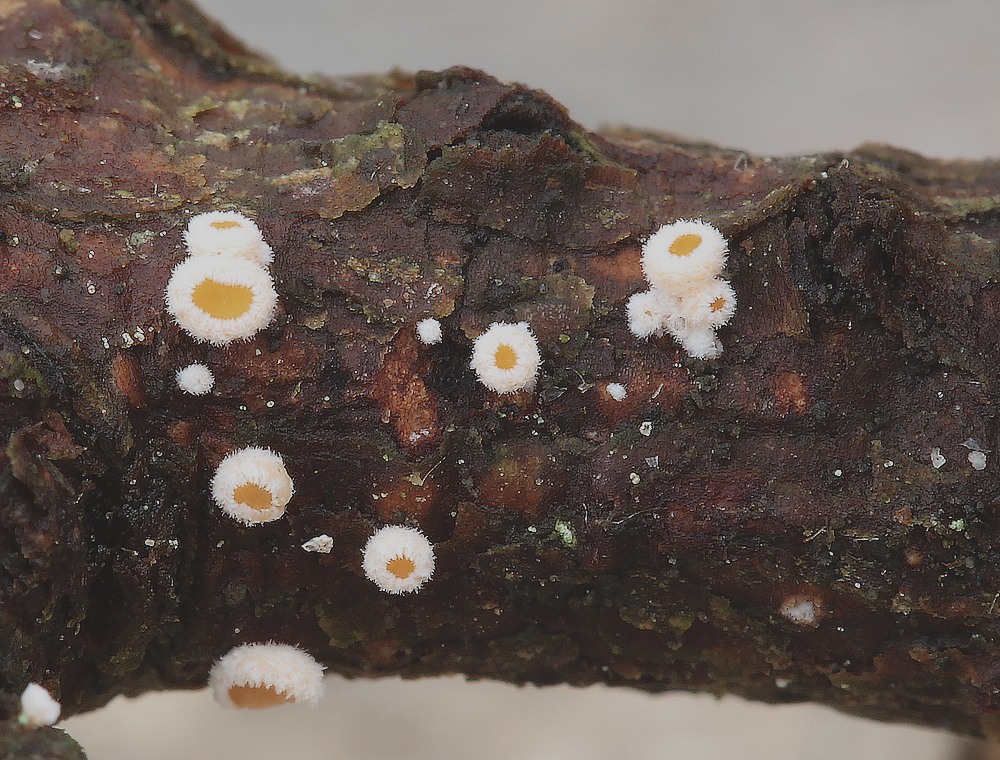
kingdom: Fungi
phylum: Ascomycota
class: Leotiomycetes
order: Helotiales
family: Lachnaceae
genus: Lachnellula
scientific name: Lachnellula occidentalis
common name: Larch disco
